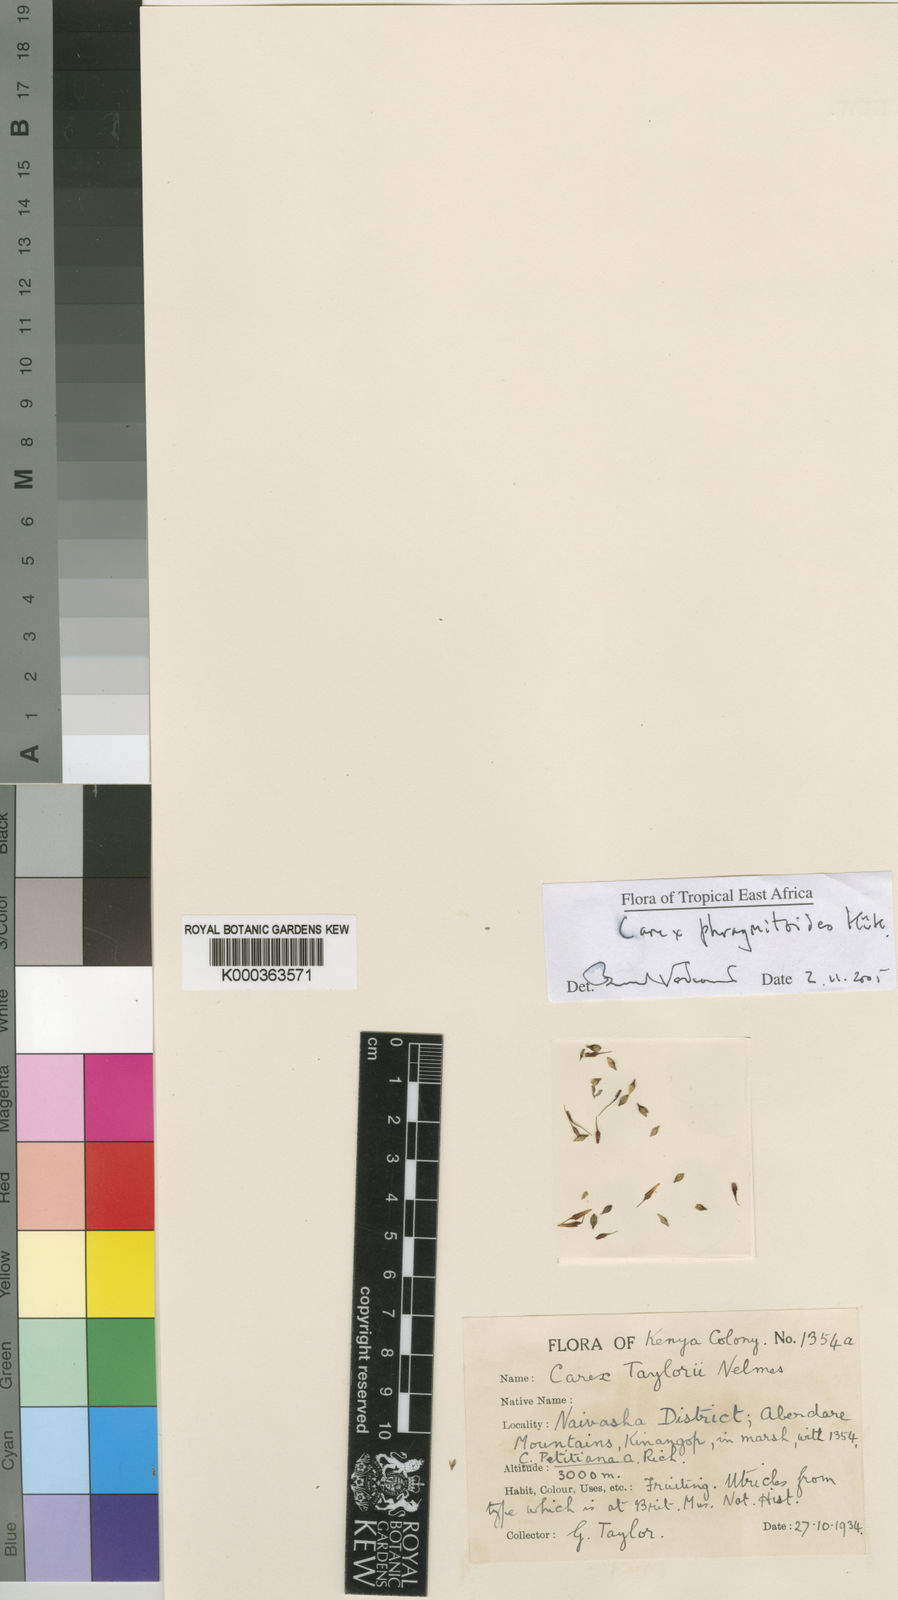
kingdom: Plantae
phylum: Tracheophyta
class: Liliopsida
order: Poales
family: Cyperaceae
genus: Carex
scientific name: Carex
